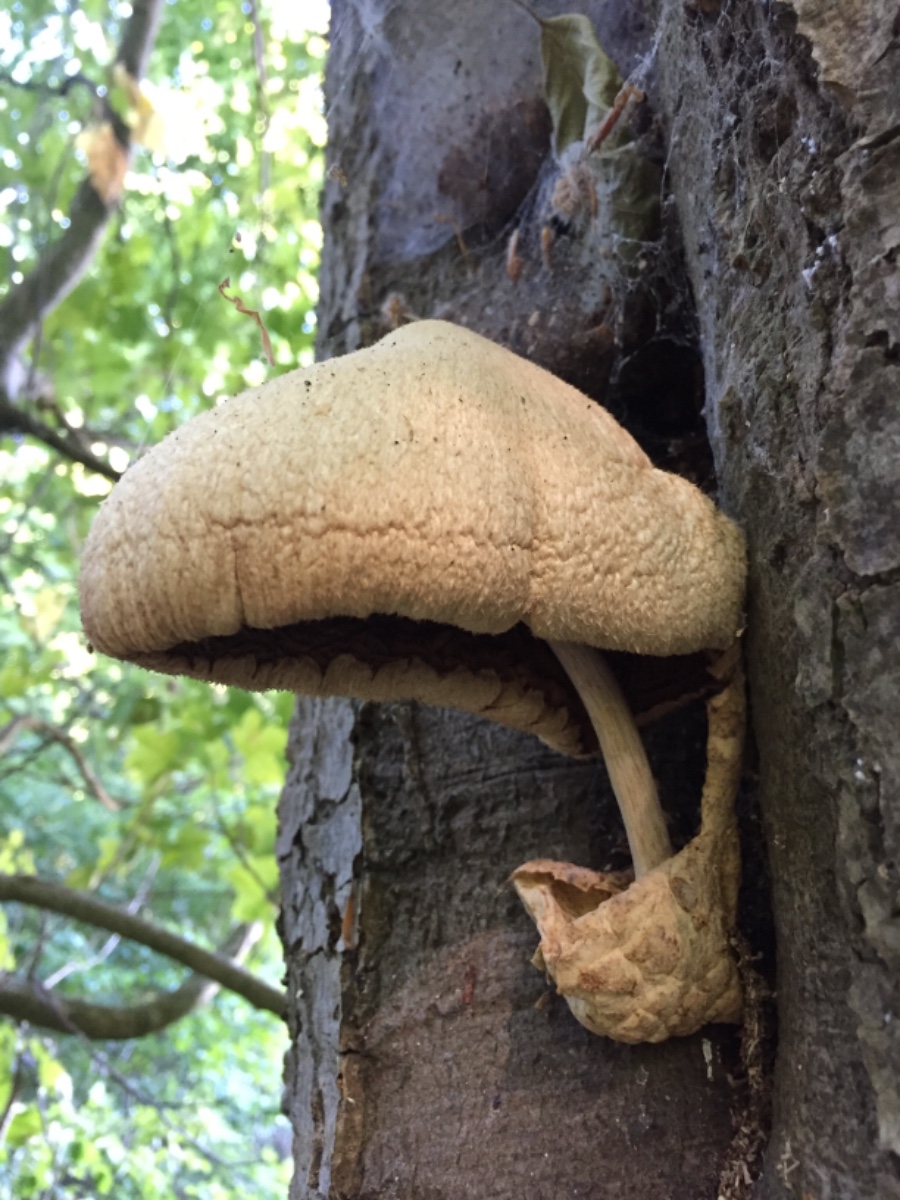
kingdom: Fungi
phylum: Basidiomycota
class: Agaricomycetes
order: Agaricales
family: Pluteaceae
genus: Volvariella
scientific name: Volvariella bombycina
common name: silkehåret posesvamp
